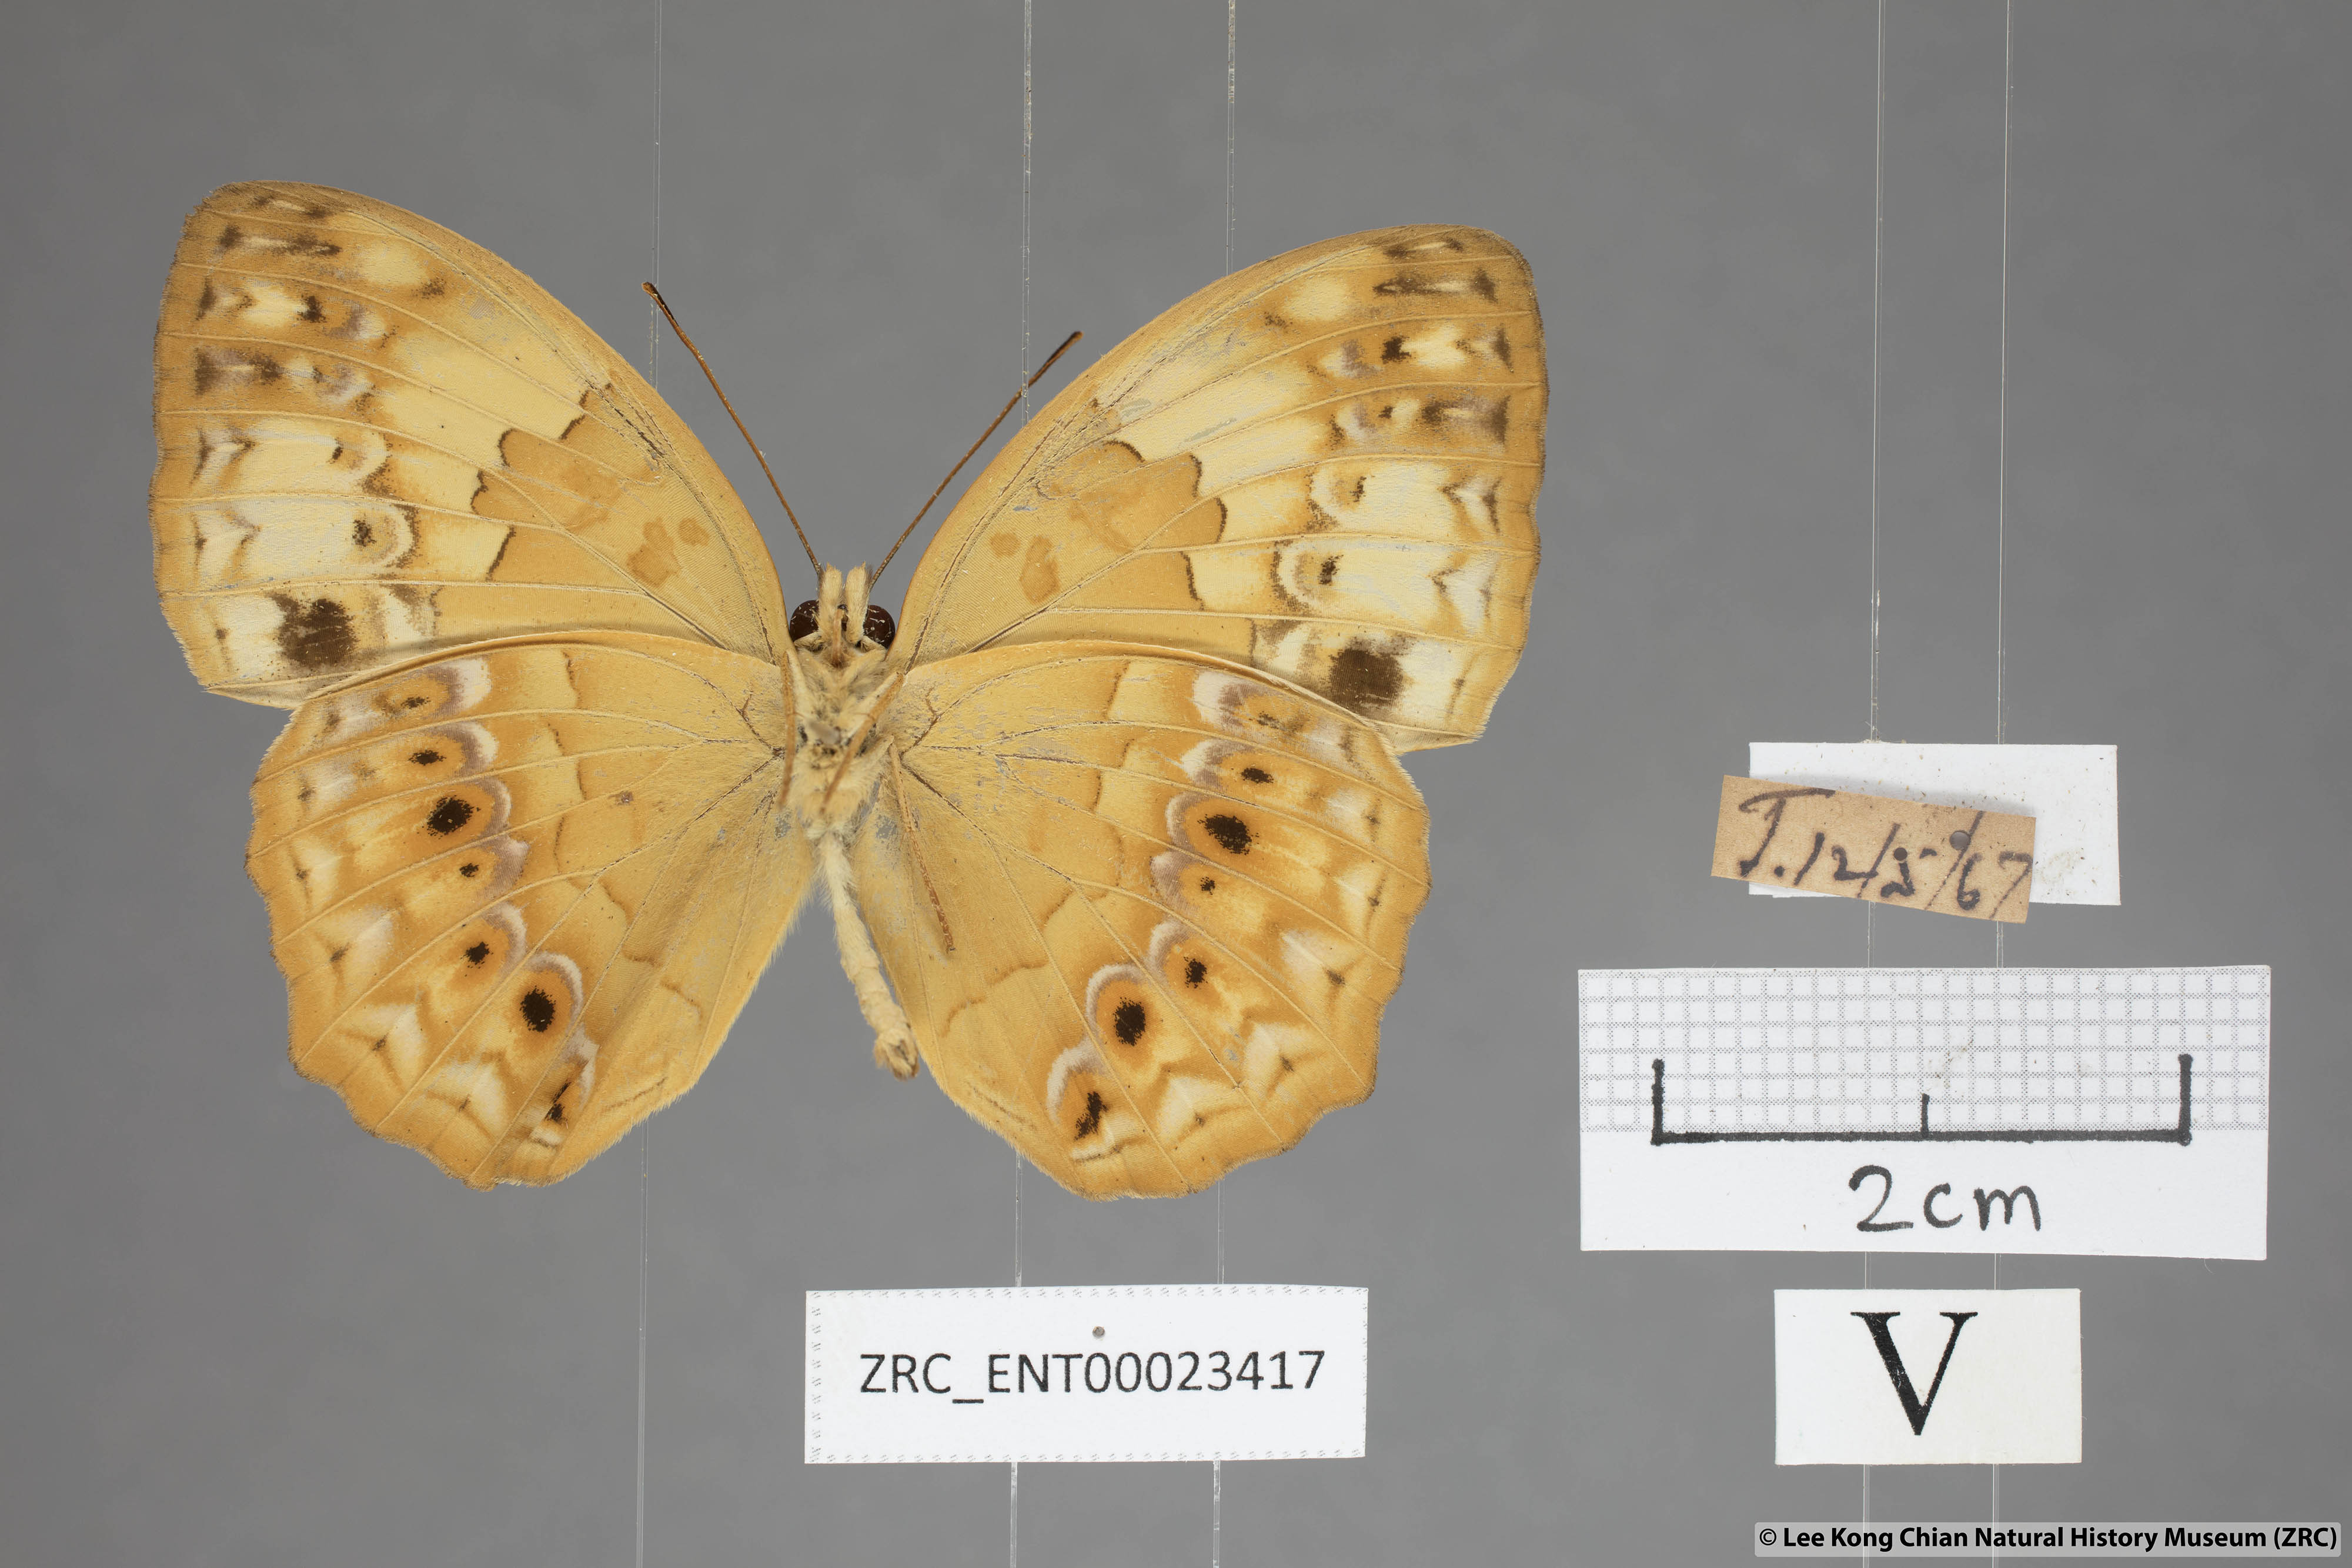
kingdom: Animalia
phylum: Arthropoda
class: Insecta
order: Lepidoptera
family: Nymphalidae
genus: Cupha
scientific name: Cupha erymanthis
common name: Rustic
